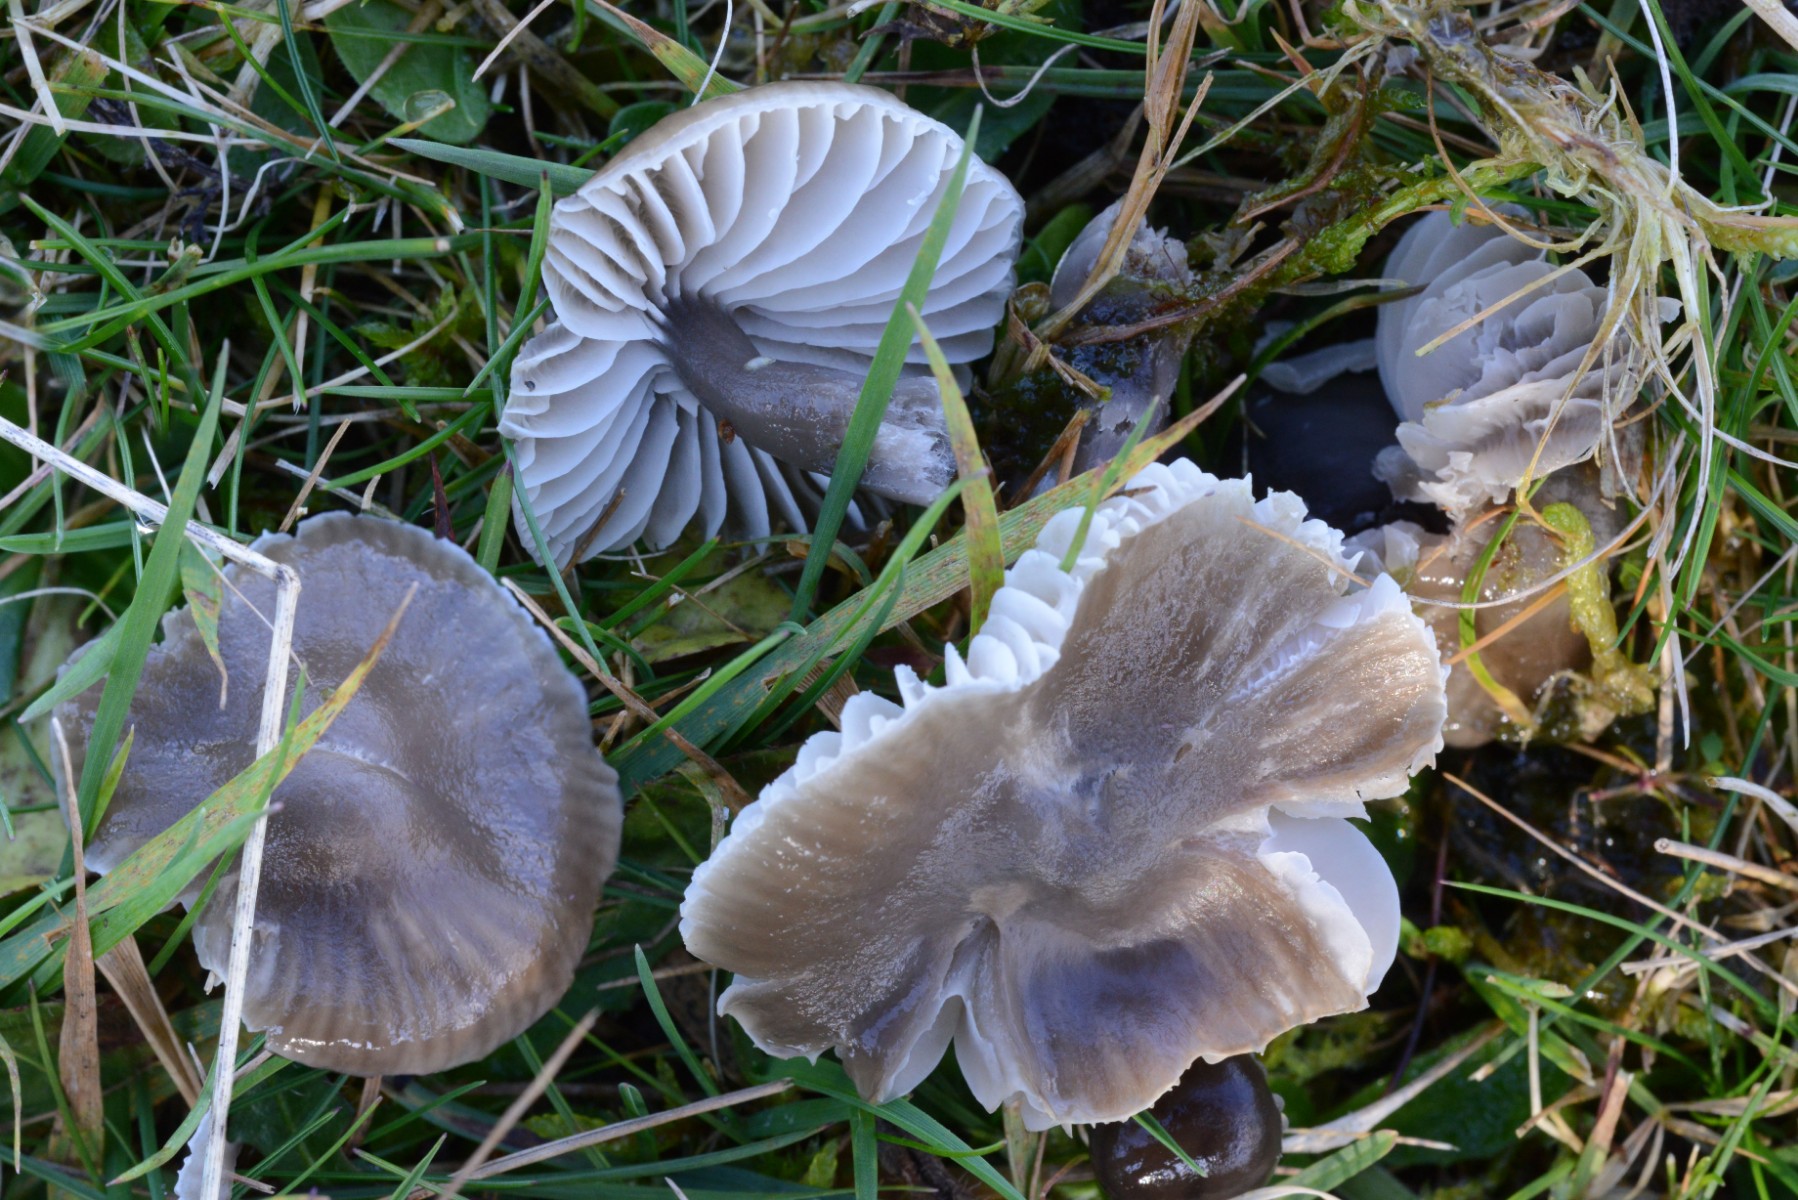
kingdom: Fungi
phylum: Basidiomycota
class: Agaricomycetes
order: Agaricales
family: Tricholomataceae
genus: Dermoloma
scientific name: Dermoloma cuneifolium
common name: eng-nonnehat
